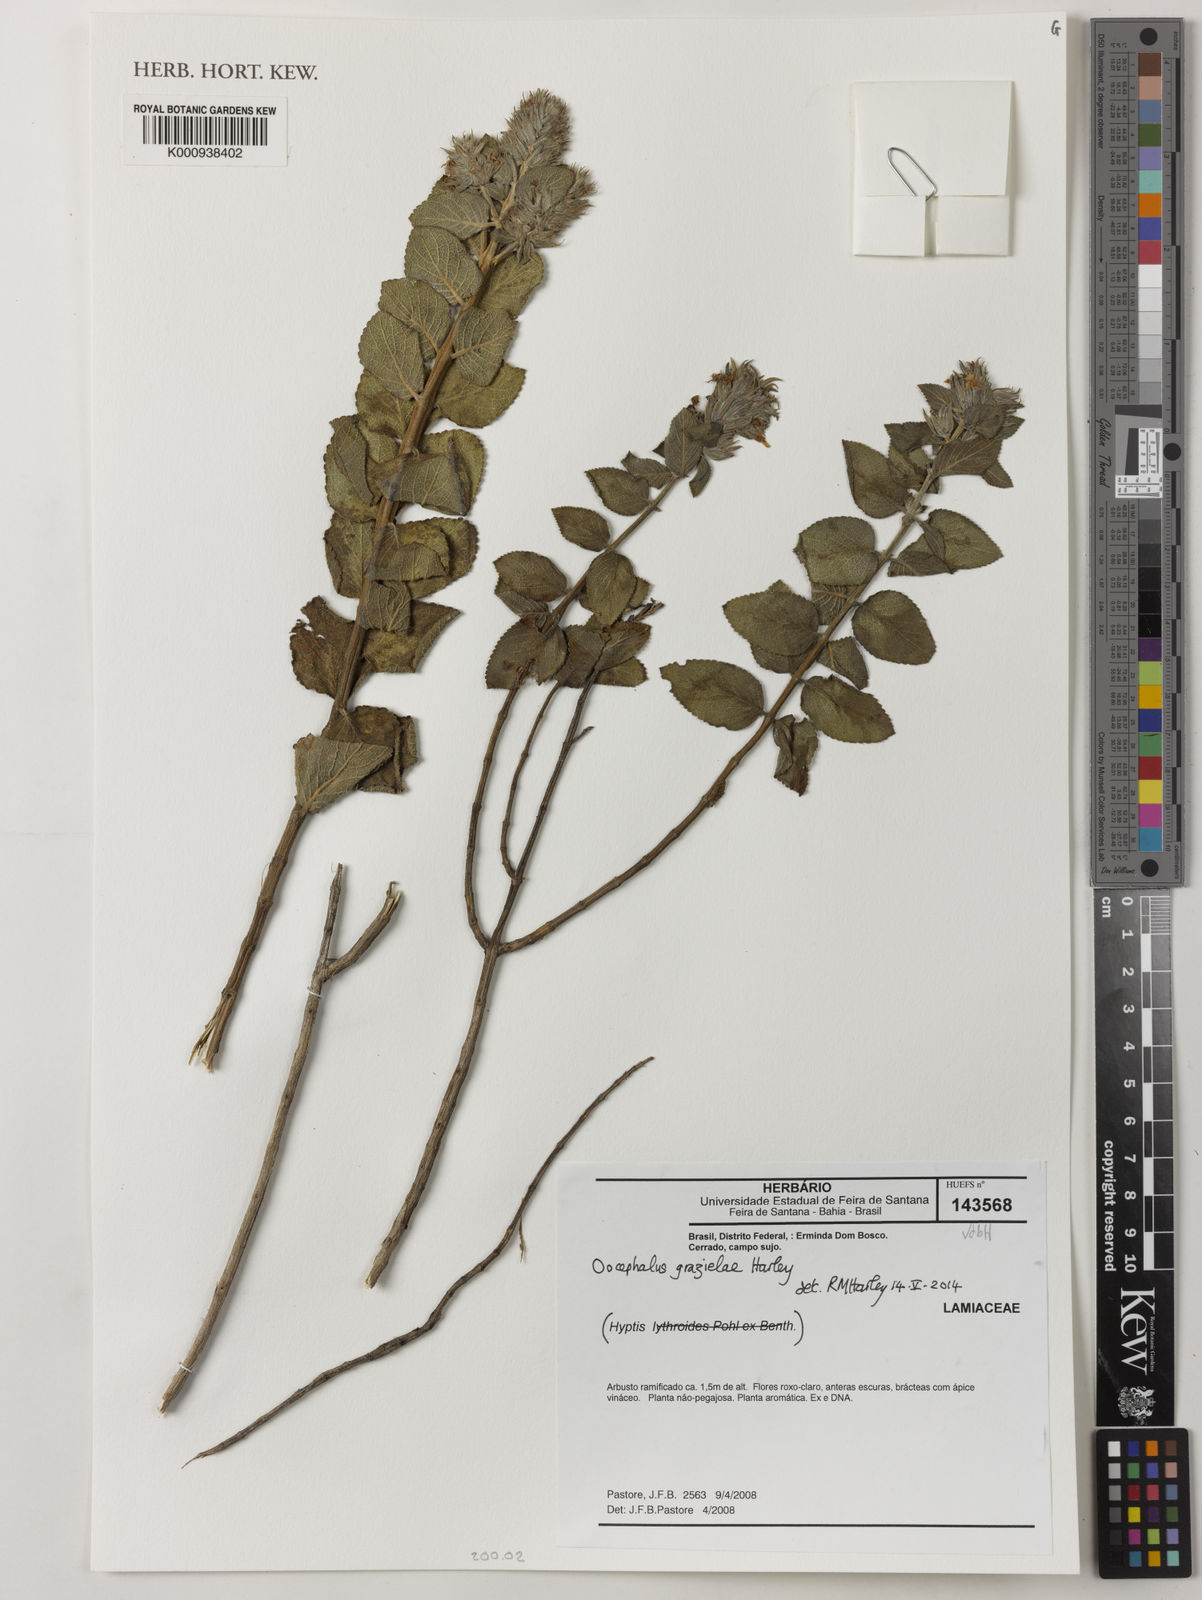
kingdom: Plantae
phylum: Tracheophyta
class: Magnoliopsida
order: Lamiales
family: Lamiaceae
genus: Oocephalus
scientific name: Oocephalus grazielae
